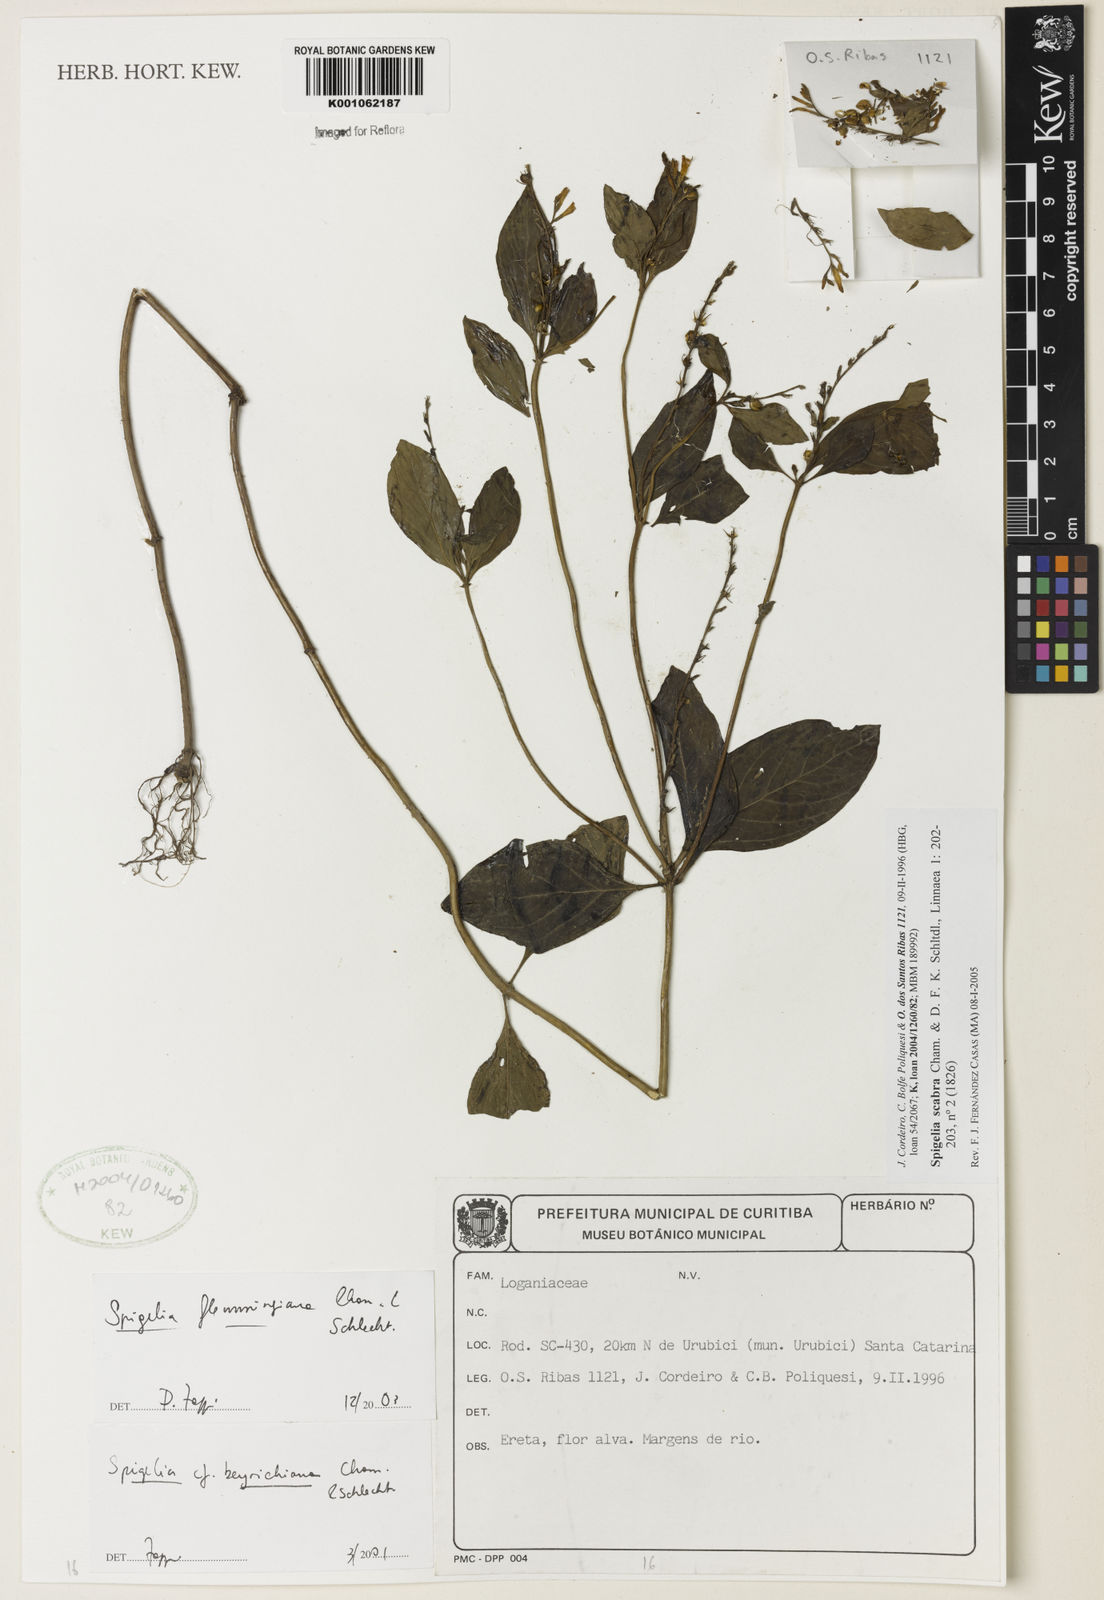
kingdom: Plantae
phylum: Tracheophyta
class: Magnoliopsida
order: Gentianales
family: Loganiaceae
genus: Spigelia
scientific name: Spigelia humboldtiana
